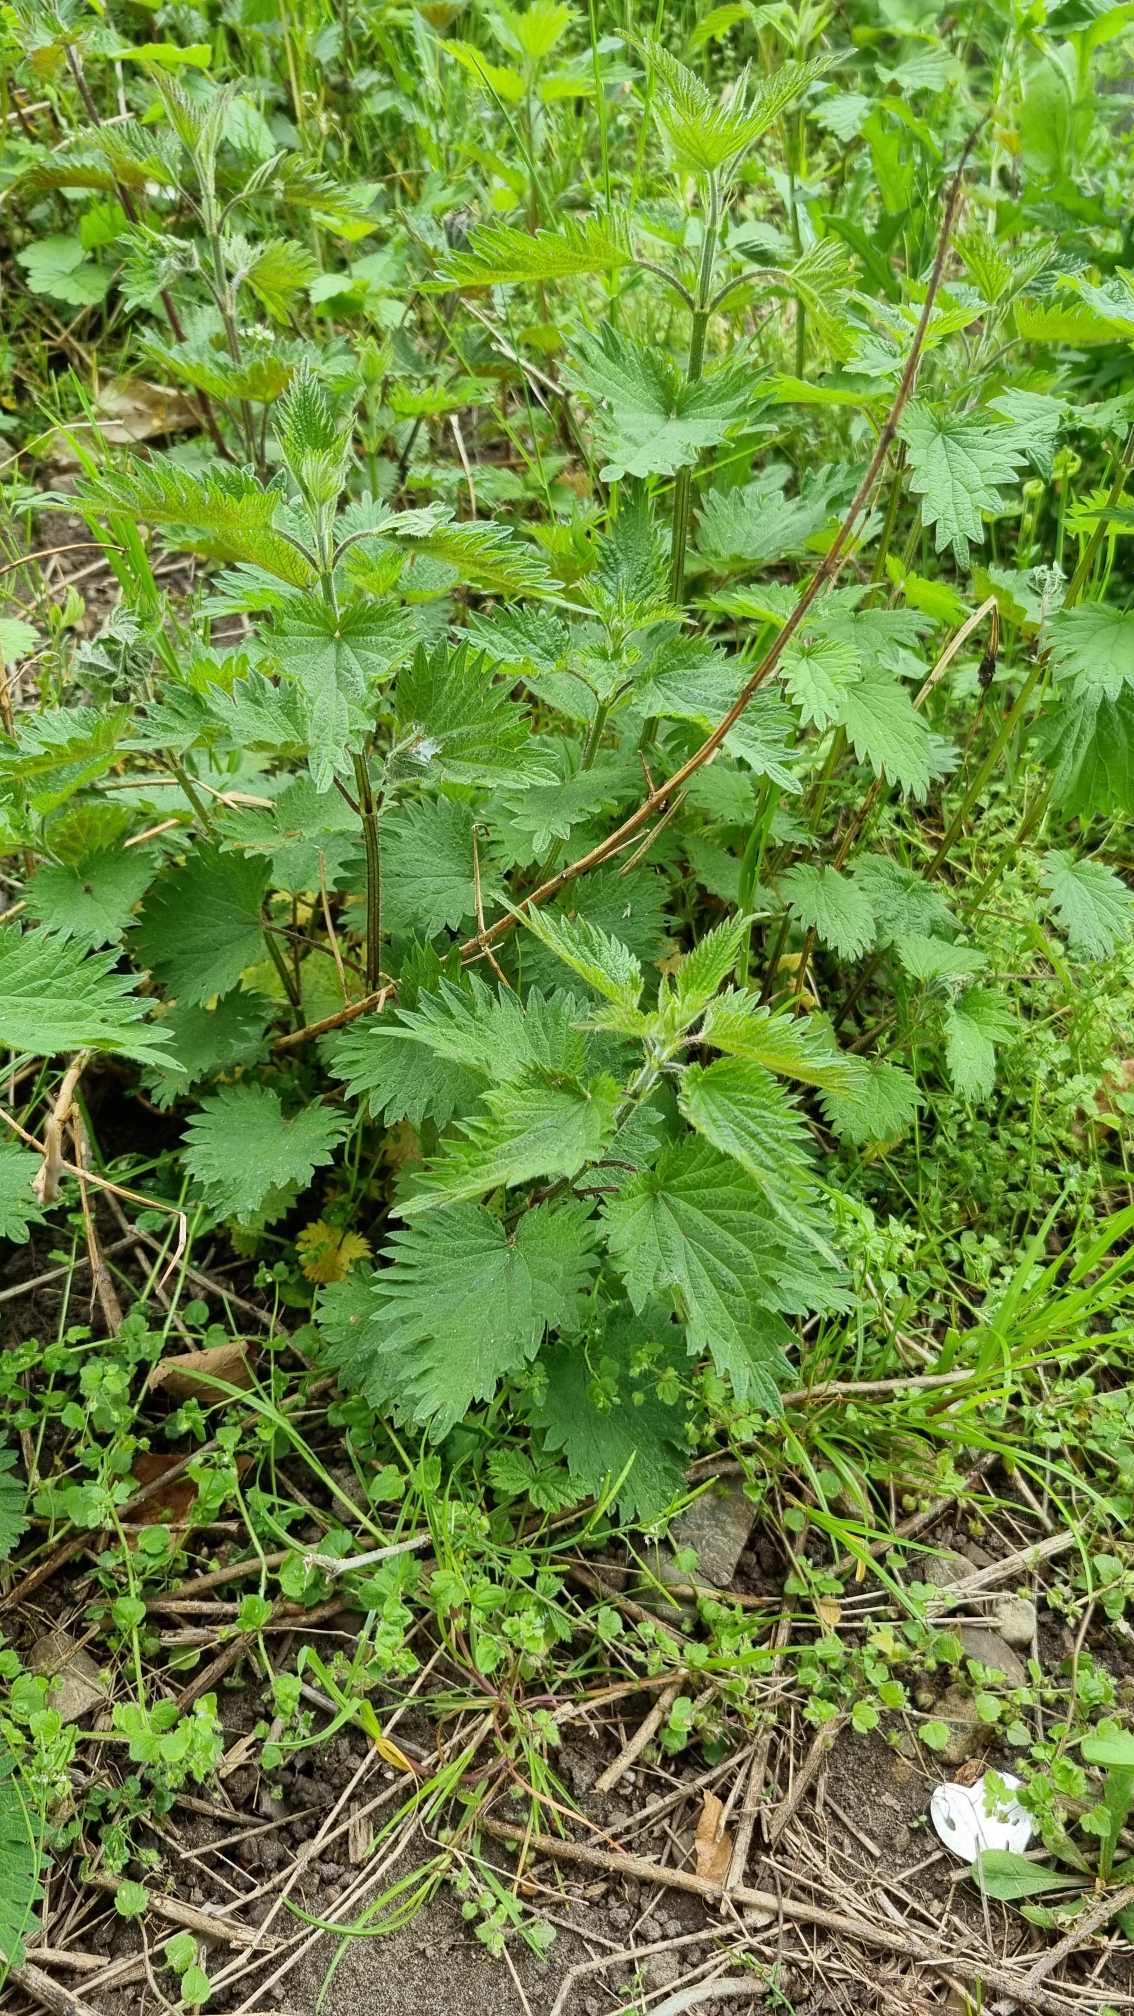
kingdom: Plantae
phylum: Tracheophyta
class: Magnoliopsida
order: Rosales
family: Urticaceae
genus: Urtica
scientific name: Urtica dioica
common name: Stor nælde
